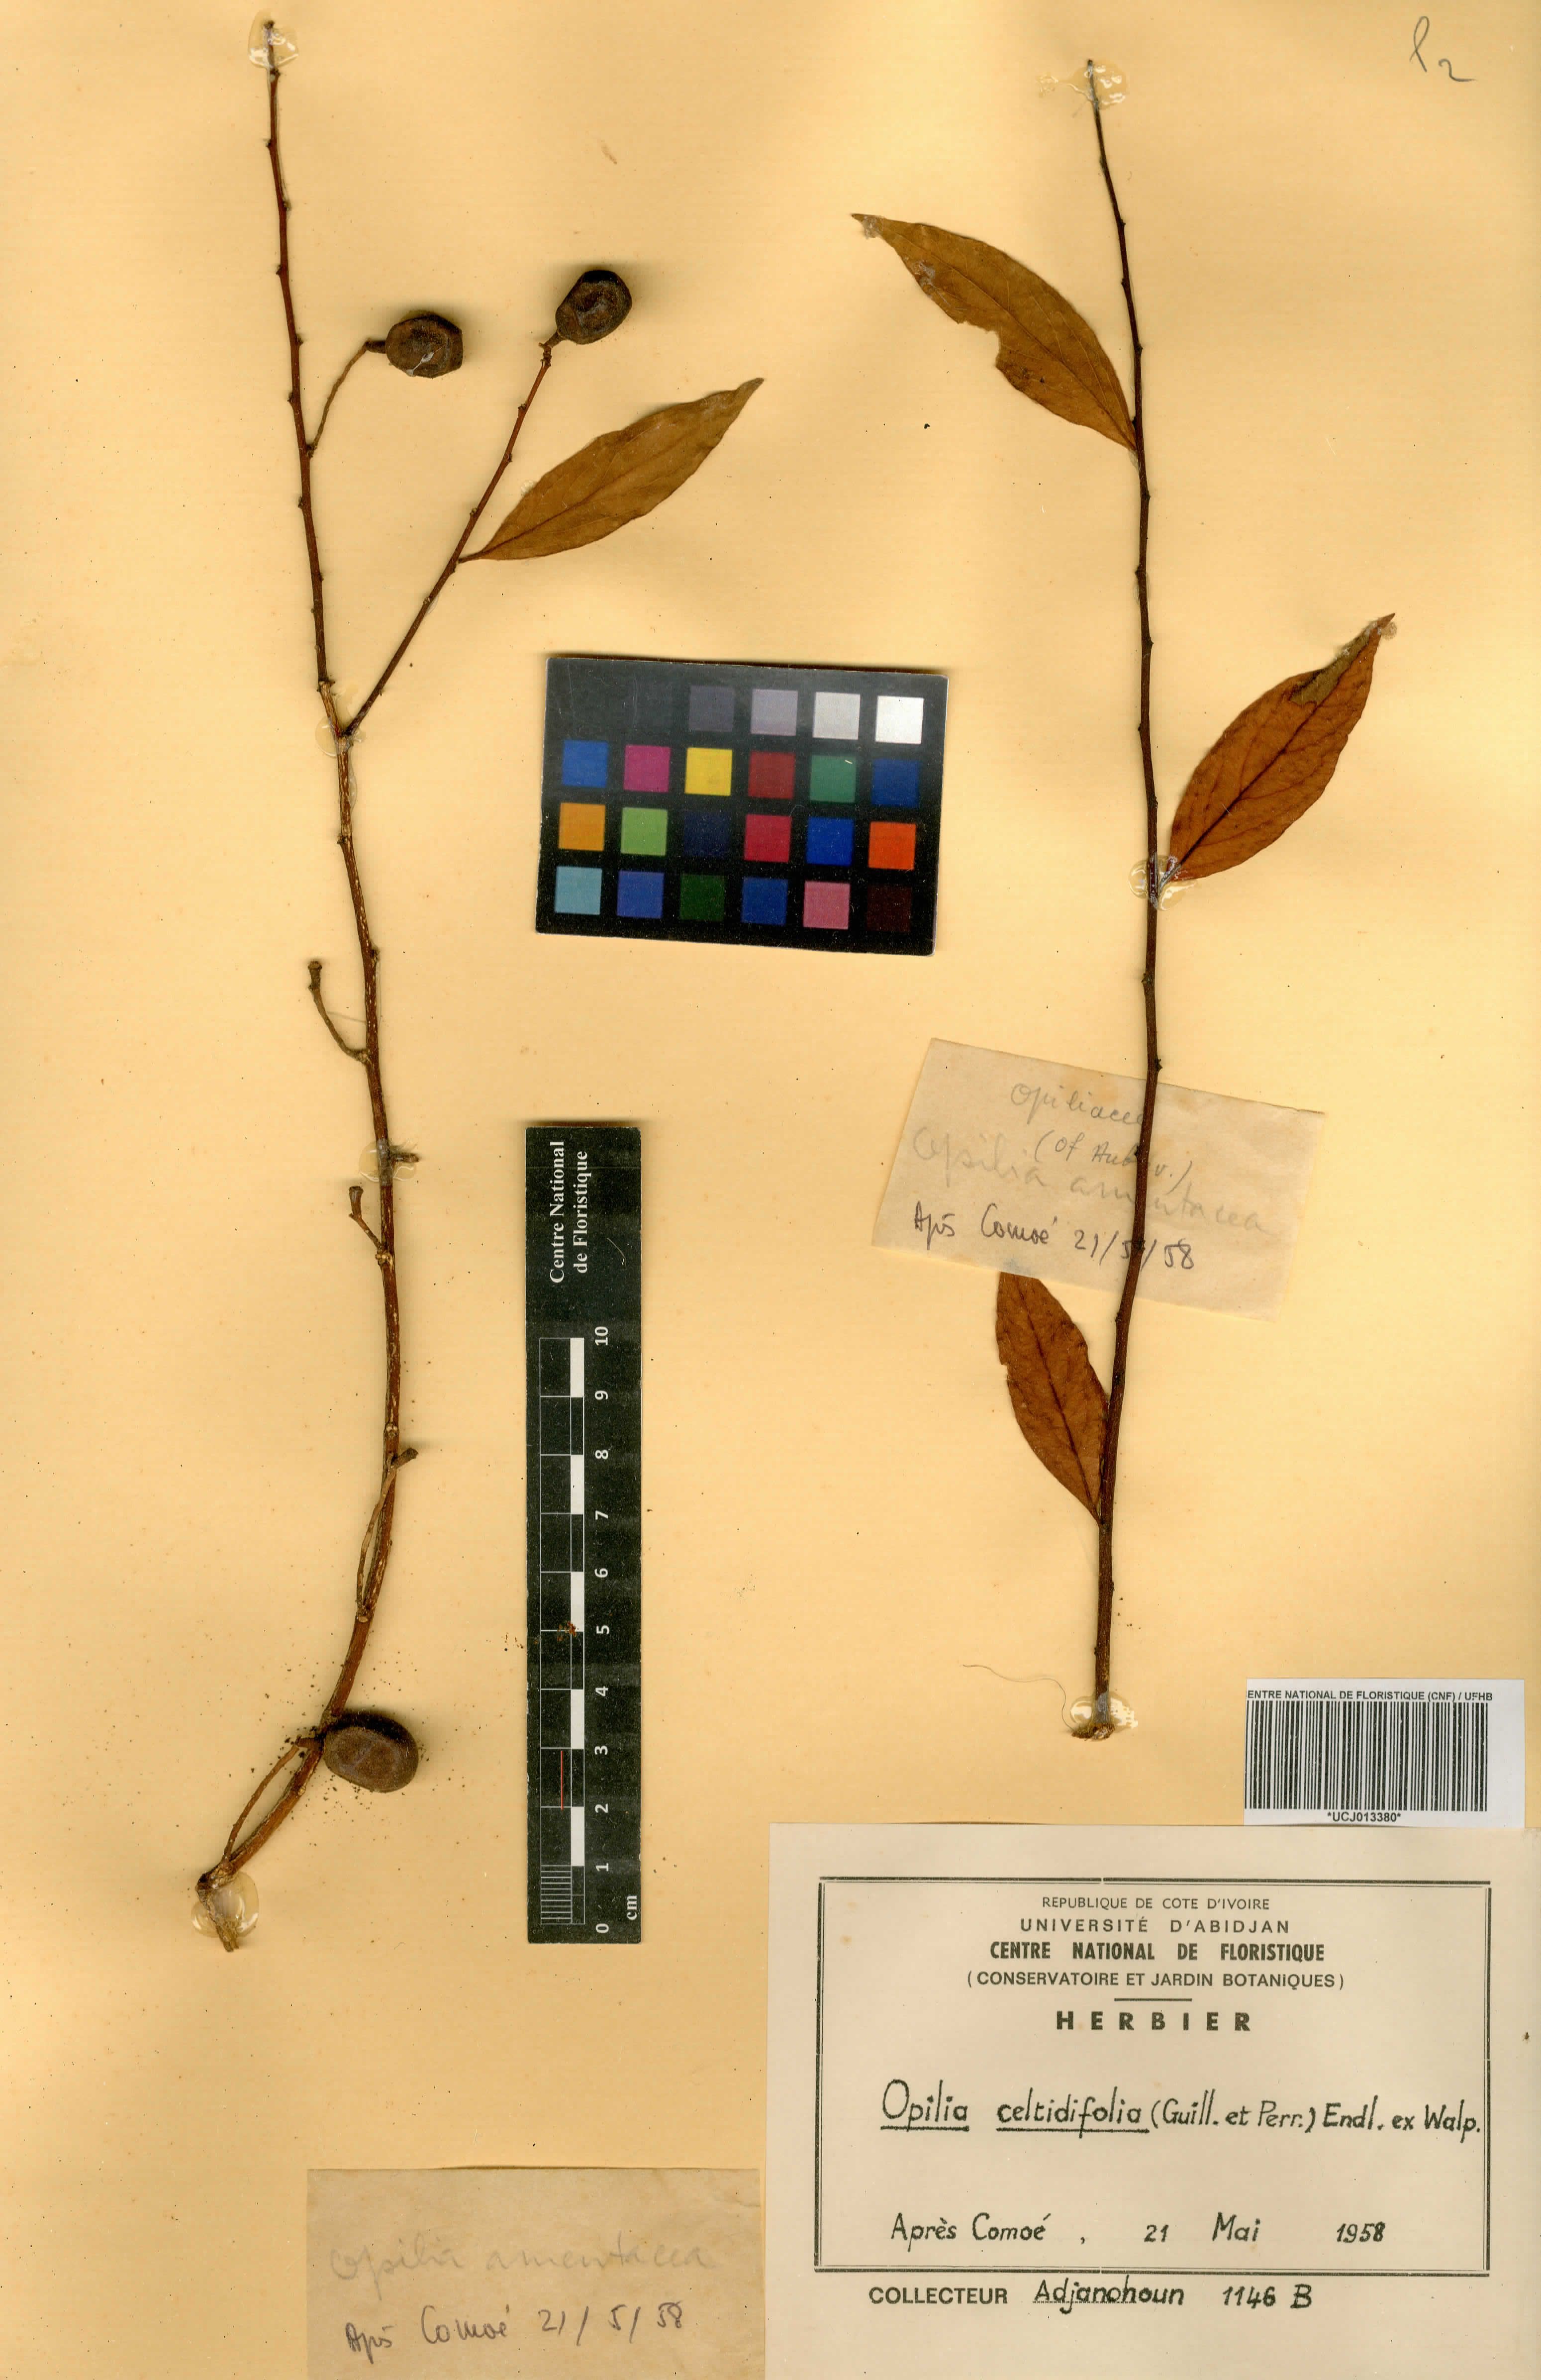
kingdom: Plantae
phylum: Tracheophyta
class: Magnoliopsida
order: Santalales
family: Opiliaceae
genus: Opilia
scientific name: Opilia amentacea
